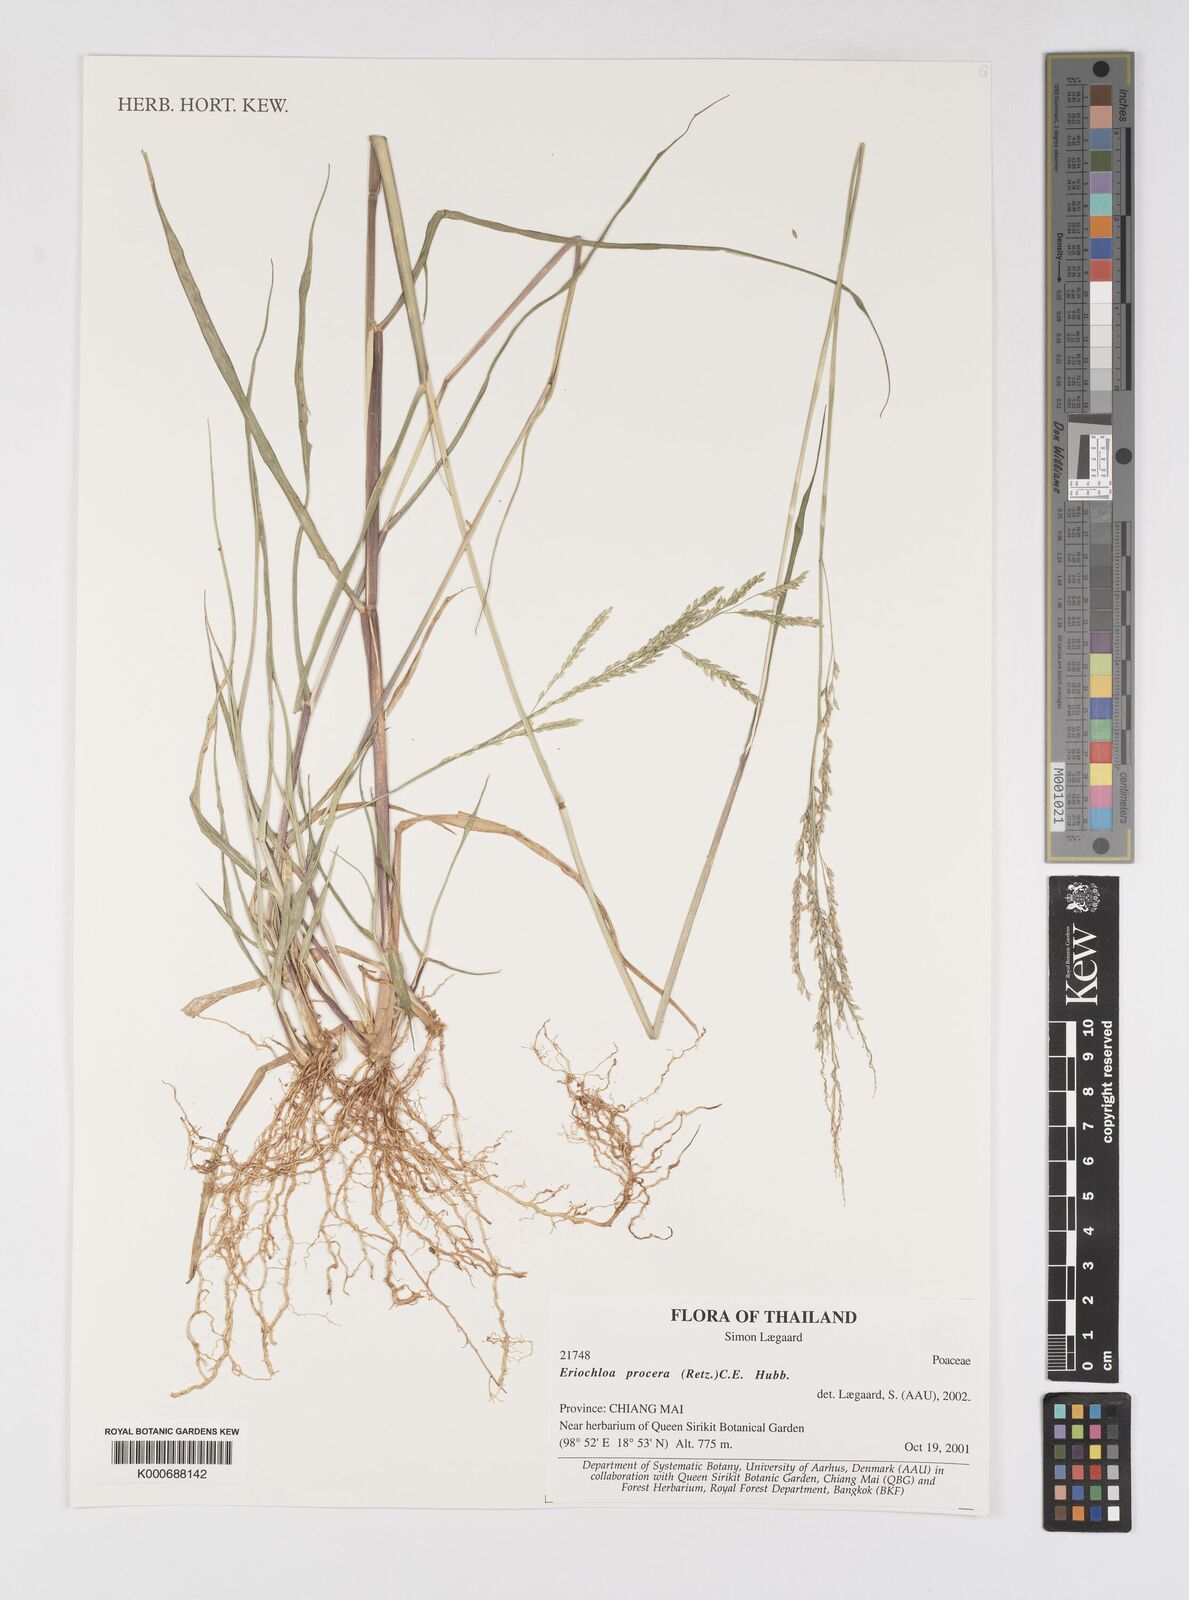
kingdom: Plantae
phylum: Tracheophyta
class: Liliopsida
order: Poales
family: Poaceae
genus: Eriochloa
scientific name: Eriochloa procera
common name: Spring grass
